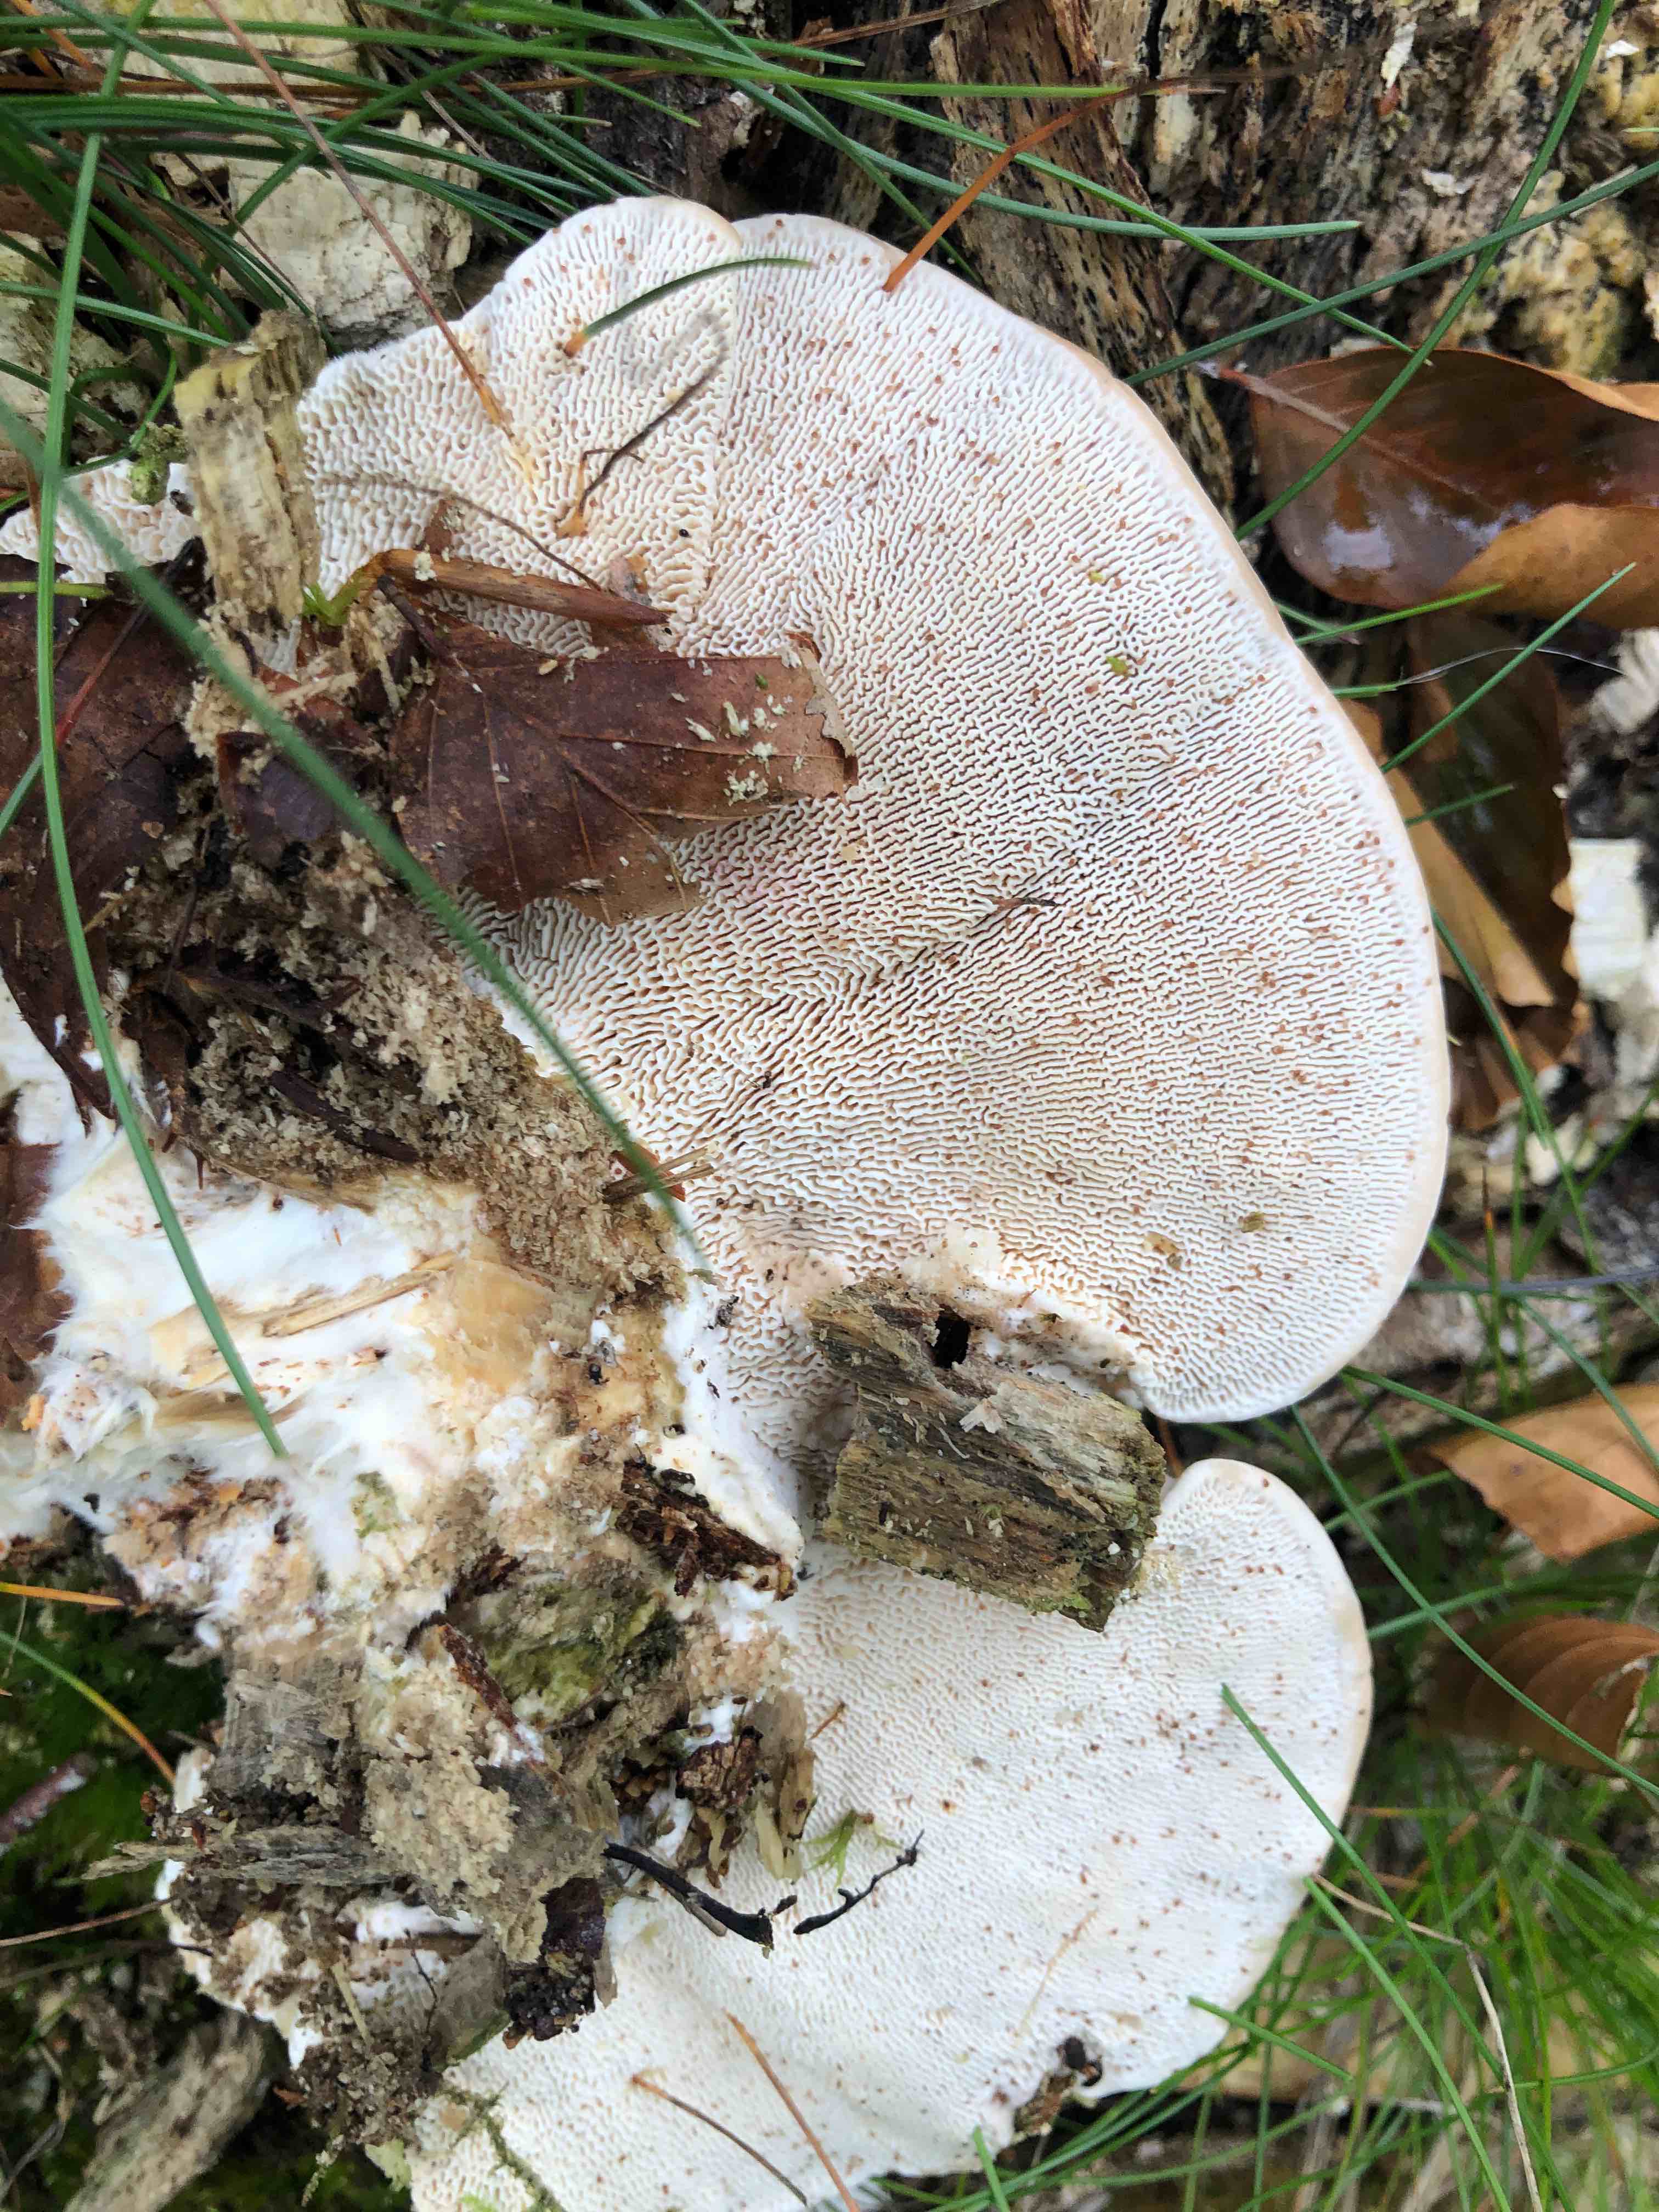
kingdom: Fungi
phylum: Basidiomycota
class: Agaricomycetes
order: Polyporales
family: Polyporaceae
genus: Trametes
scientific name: Trametes gibbosa
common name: puklet læderporesvamp
